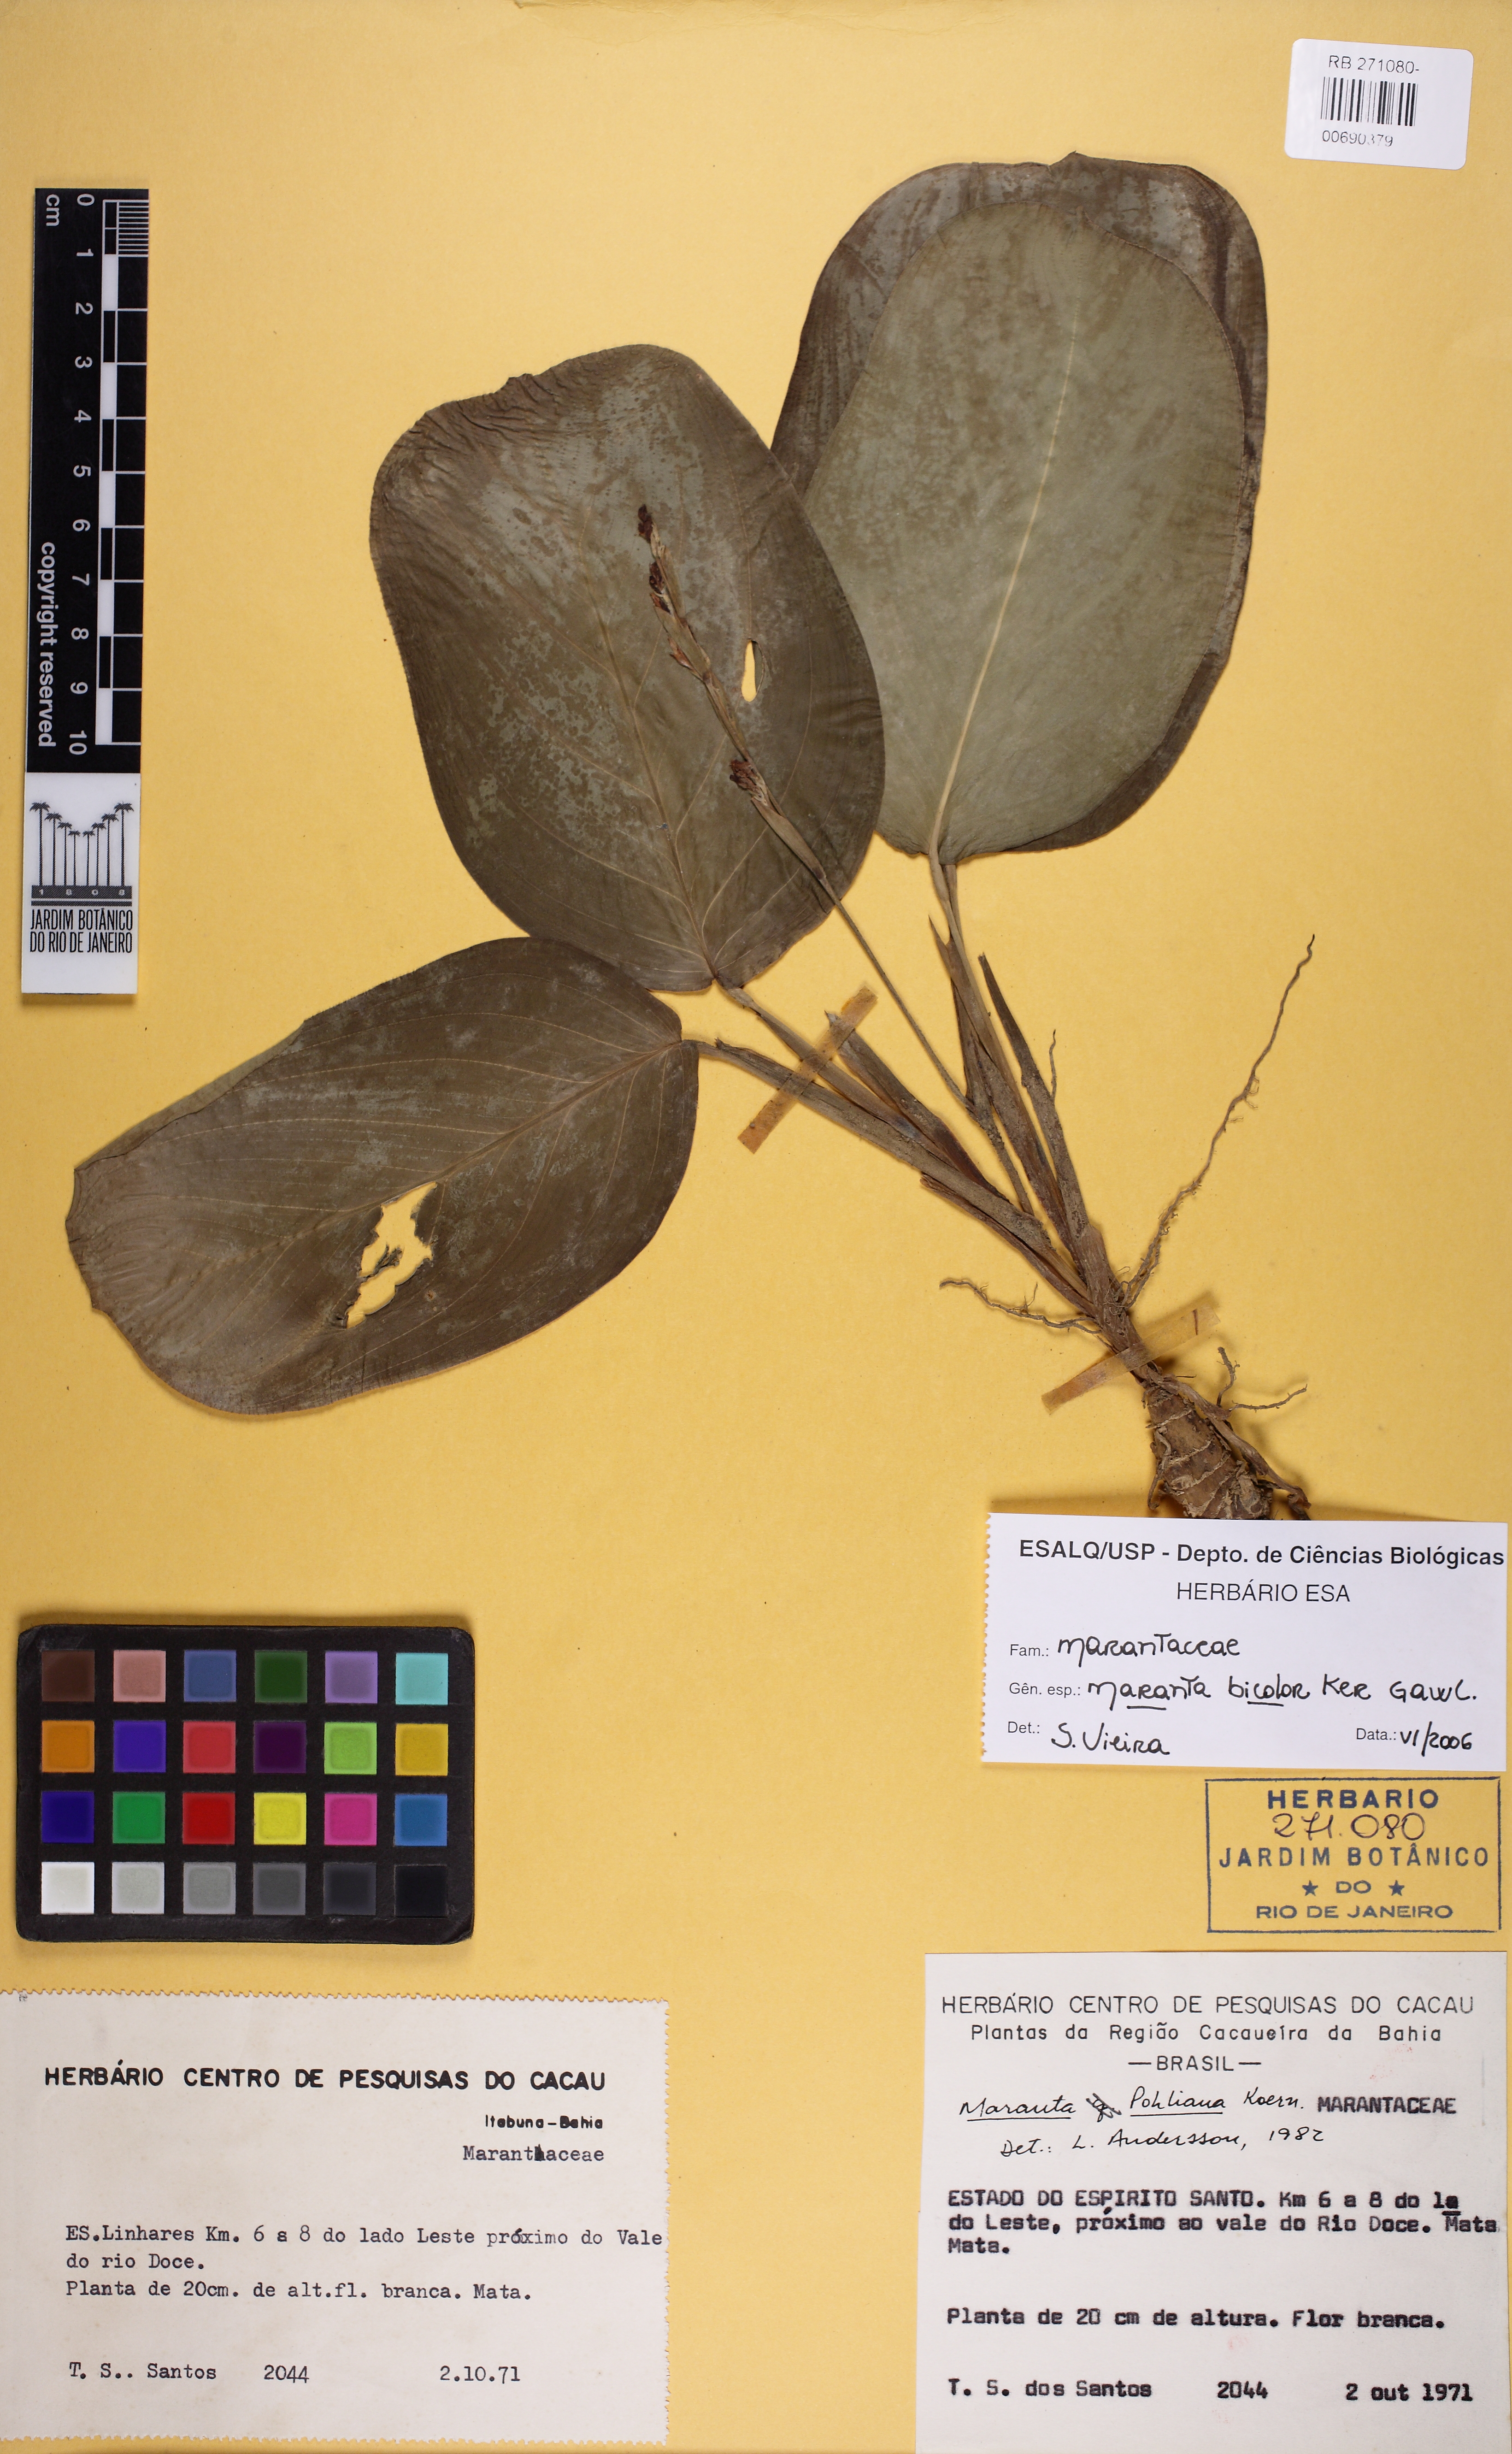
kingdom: Plantae
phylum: Tracheophyta
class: Liliopsida
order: Zingiberales
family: Marantaceae
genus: Maranta
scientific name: Maranta cristata
